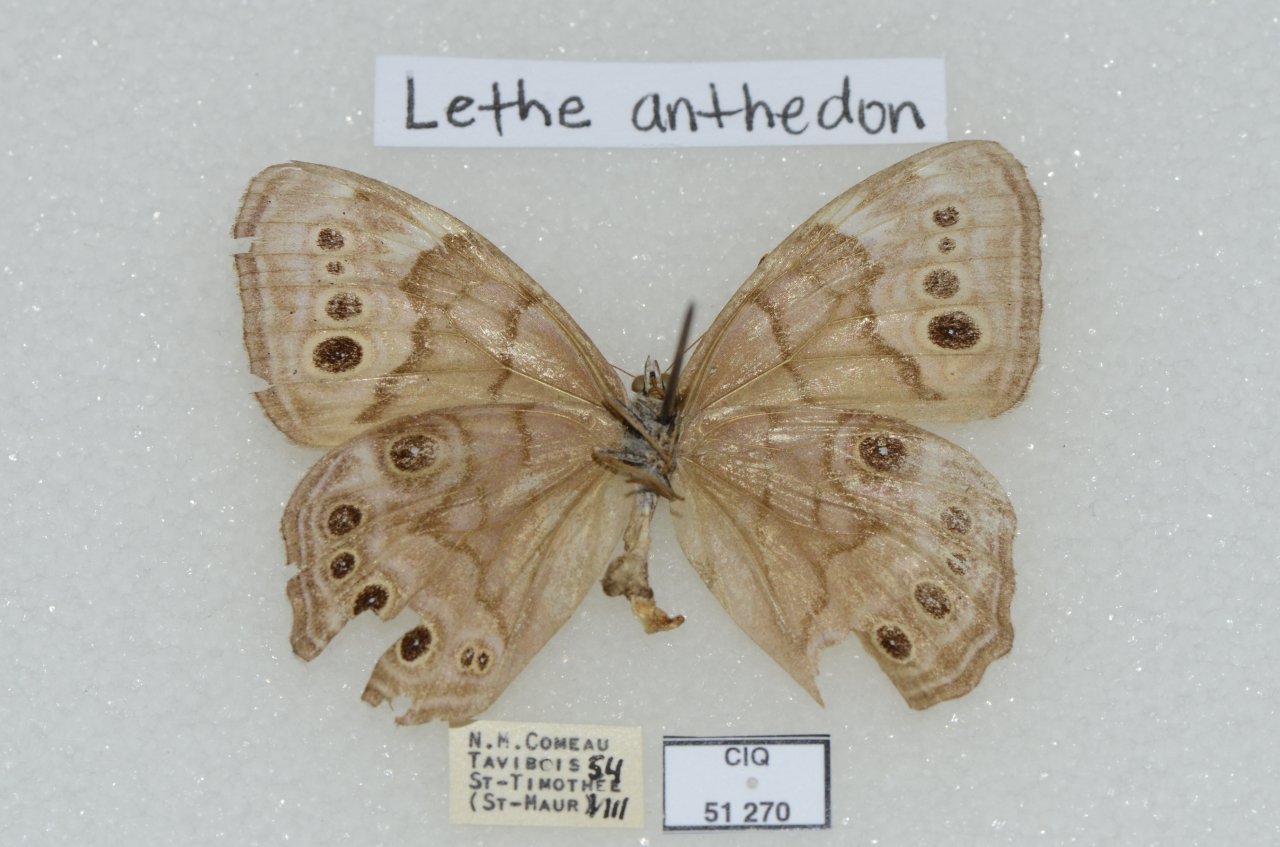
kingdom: Animalia
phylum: Arthropoda
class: Insecta
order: Lepidoptera
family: Nymphalidae
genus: Lethe
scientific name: Lethe anthedon
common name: Northern Pearly-Eye
